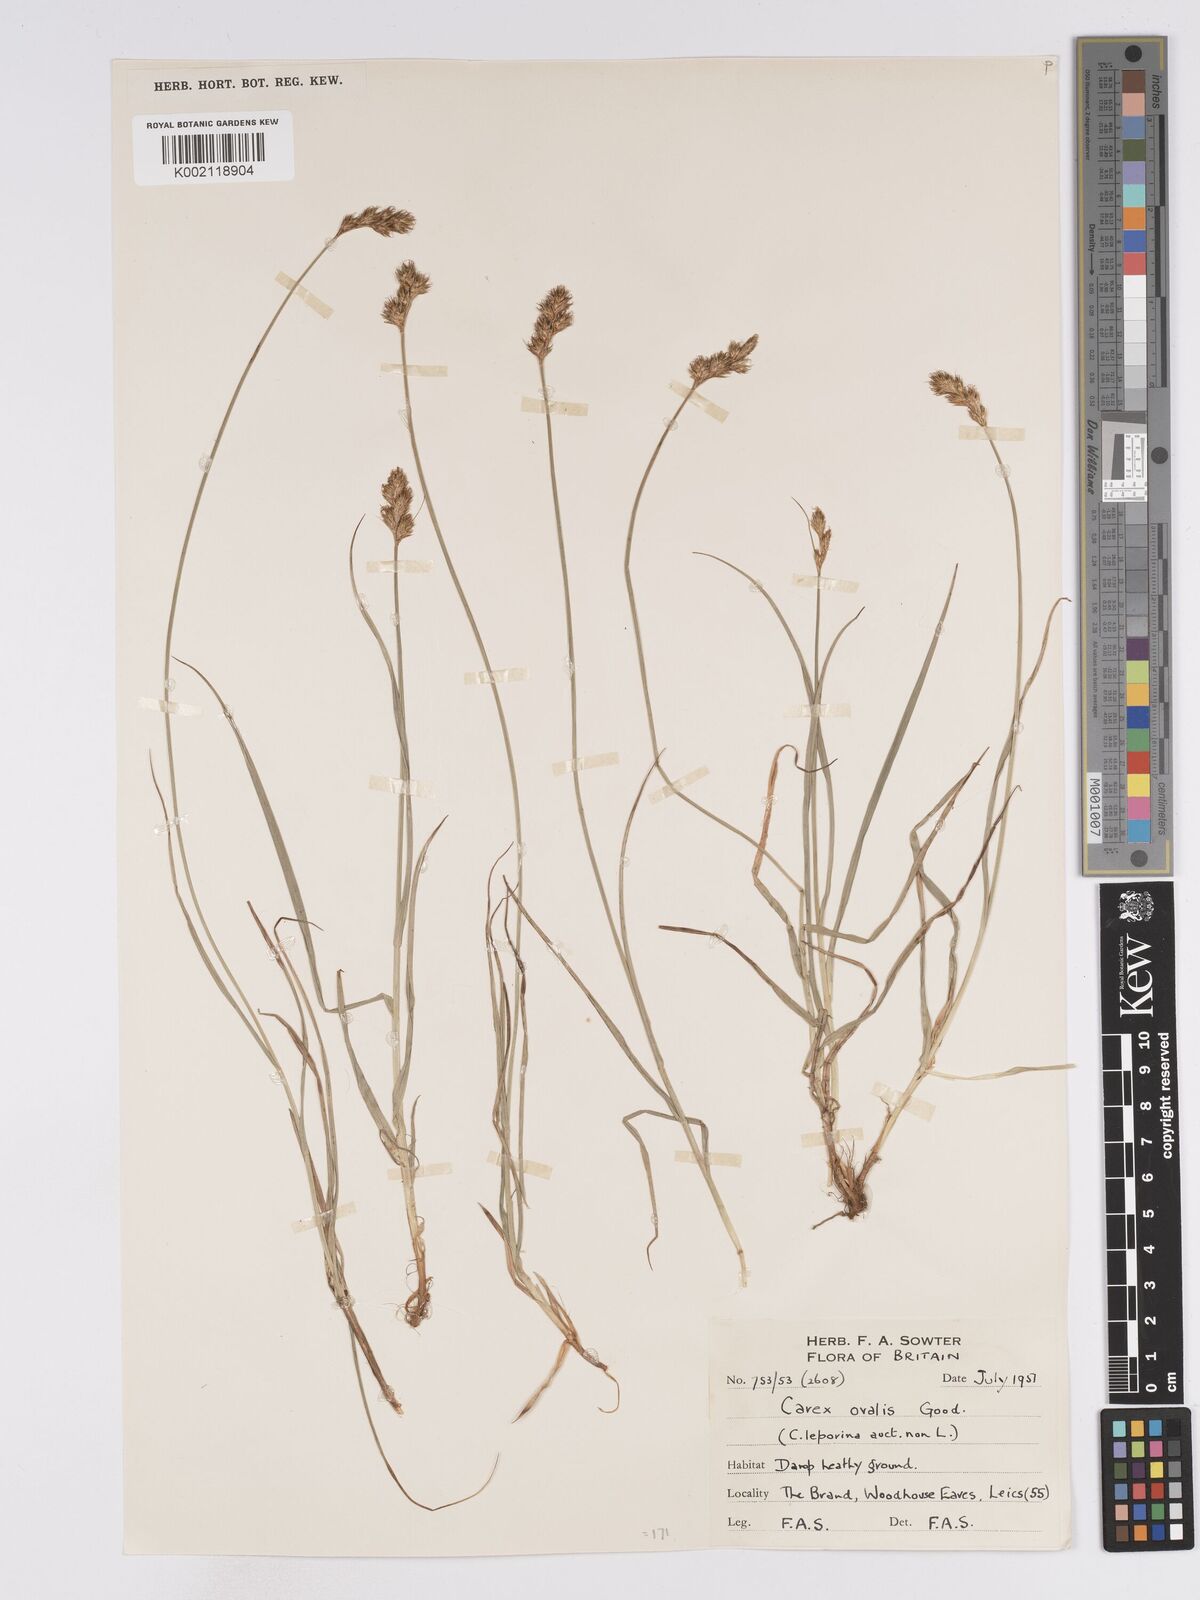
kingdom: Plantae
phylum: Tracheophyta
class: Liliopsida
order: Poales
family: Cyperaceae
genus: Carex
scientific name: Carex leporina
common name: Oval sedge
